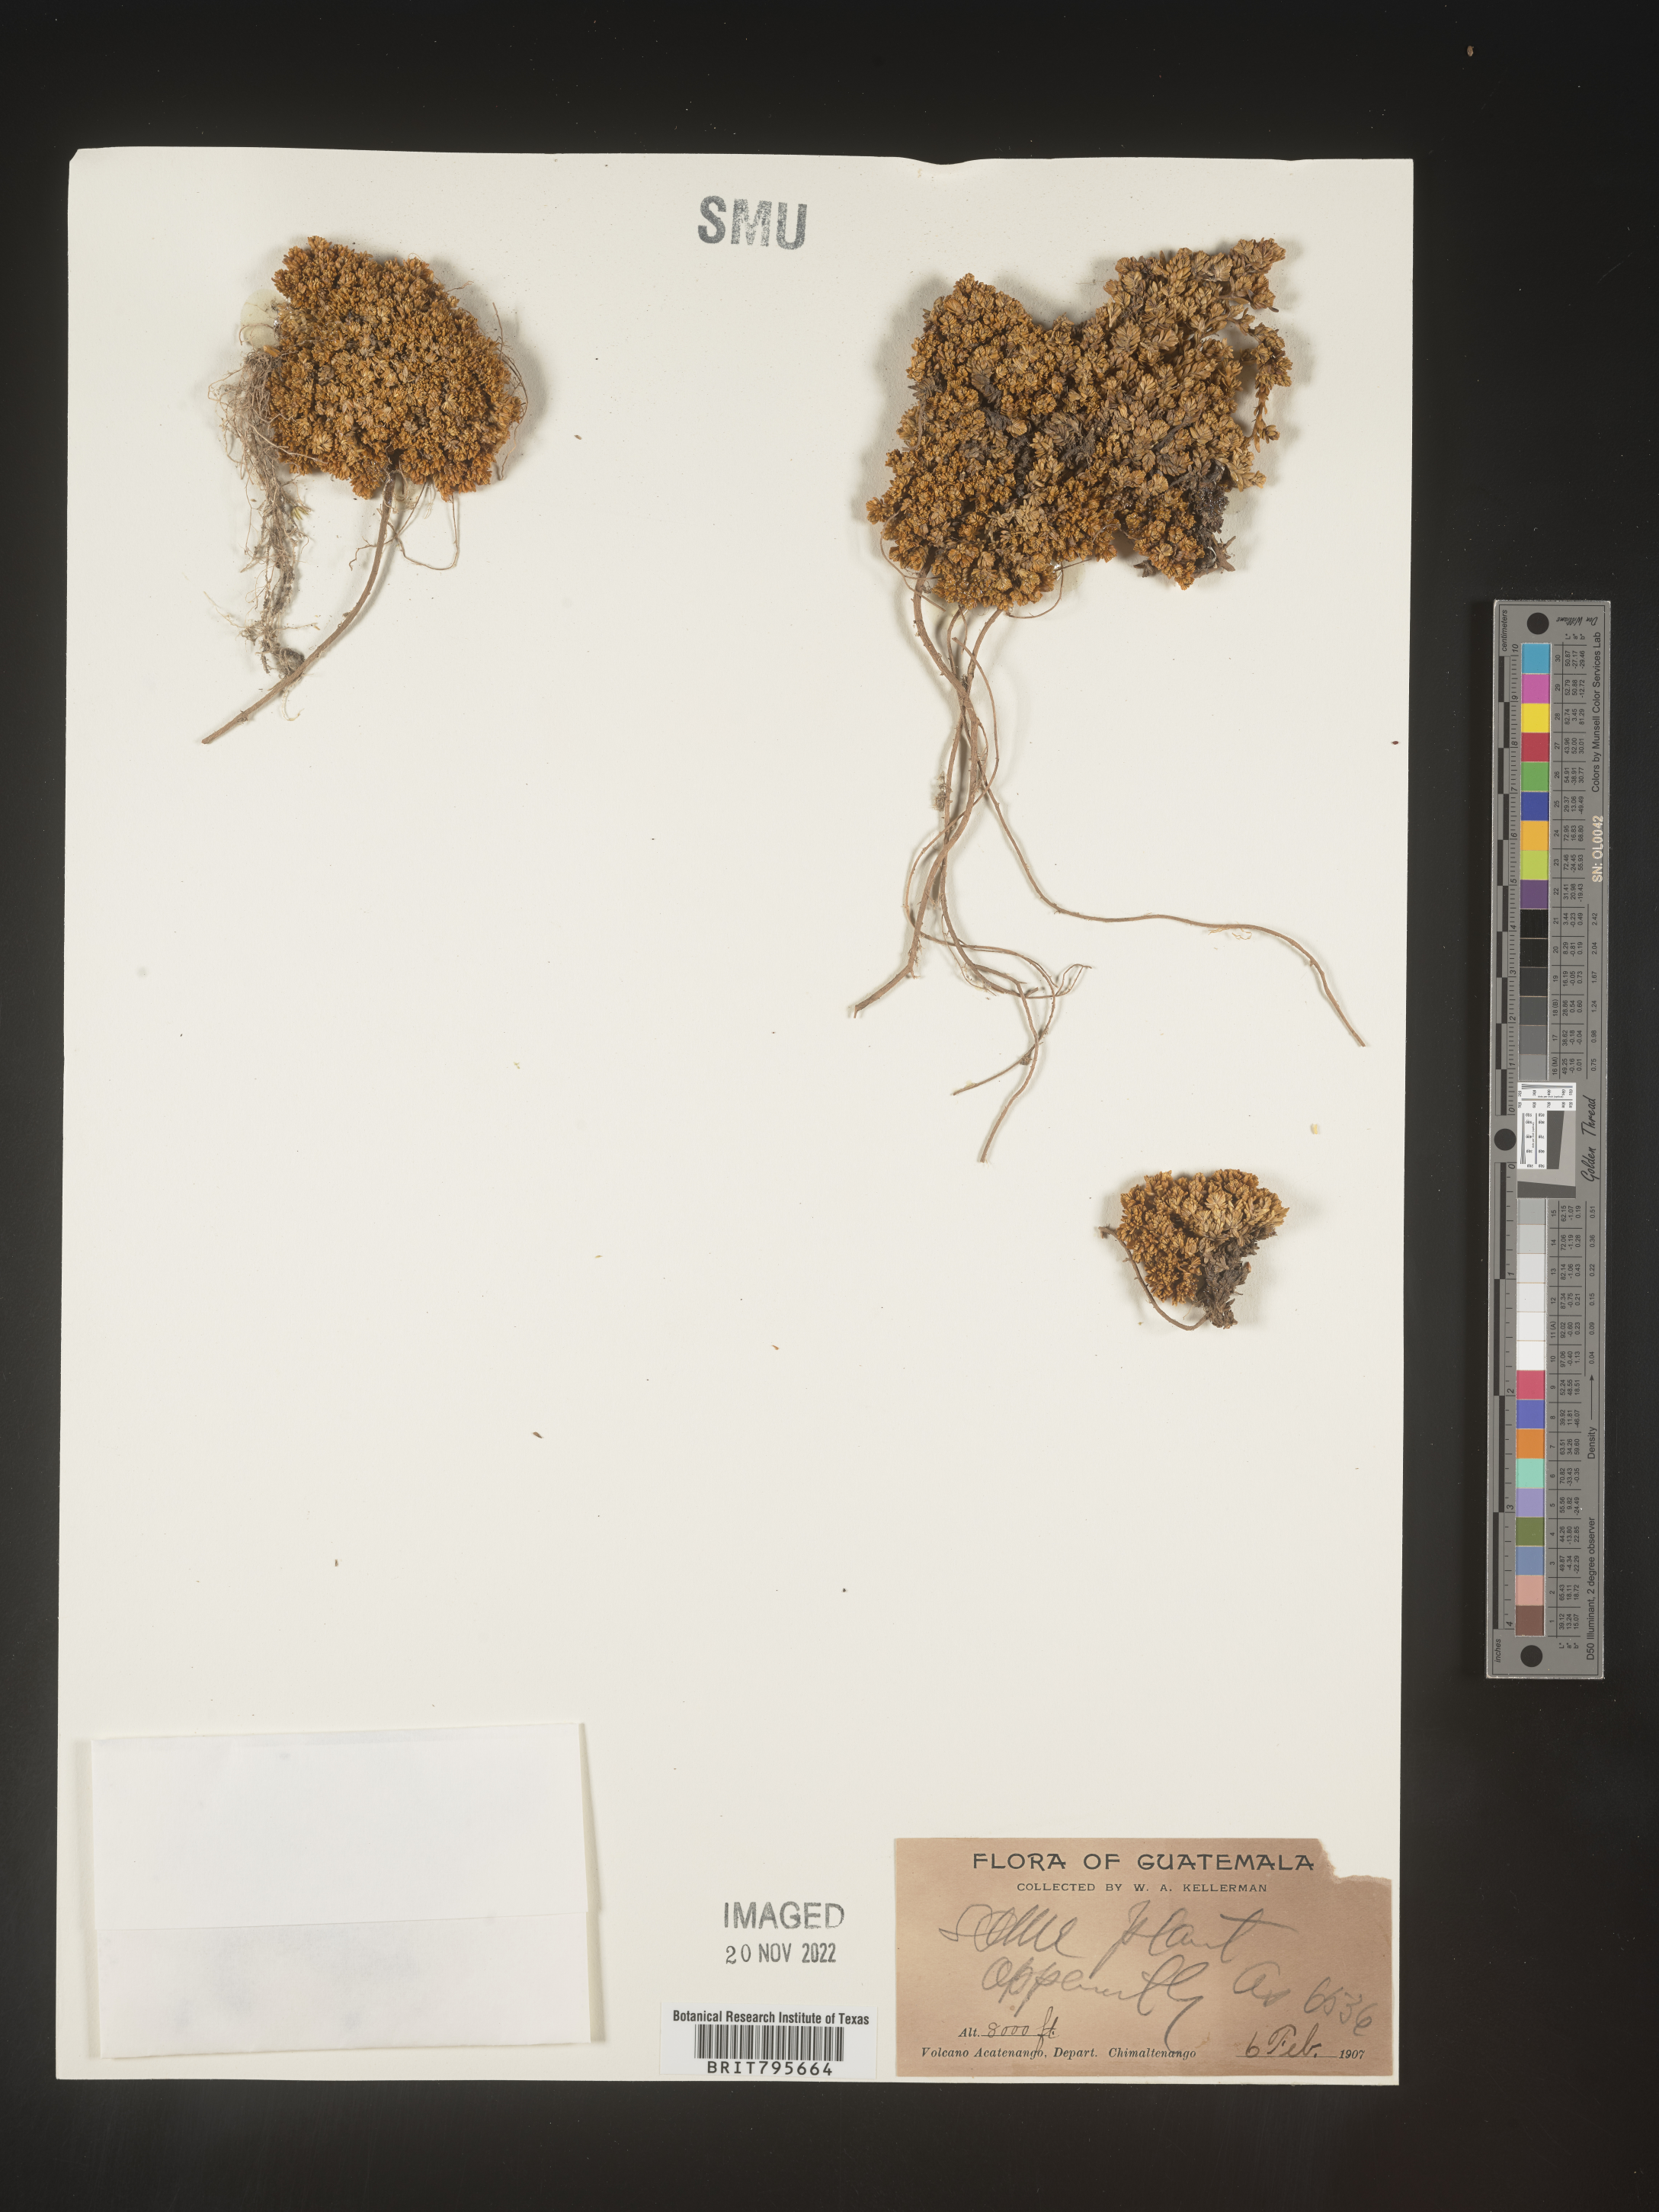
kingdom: Plantae
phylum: Tracheophyta
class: Magnoliopsida
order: Caryophyllales
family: Caryophyllaceae
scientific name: Caryophyllaceae
